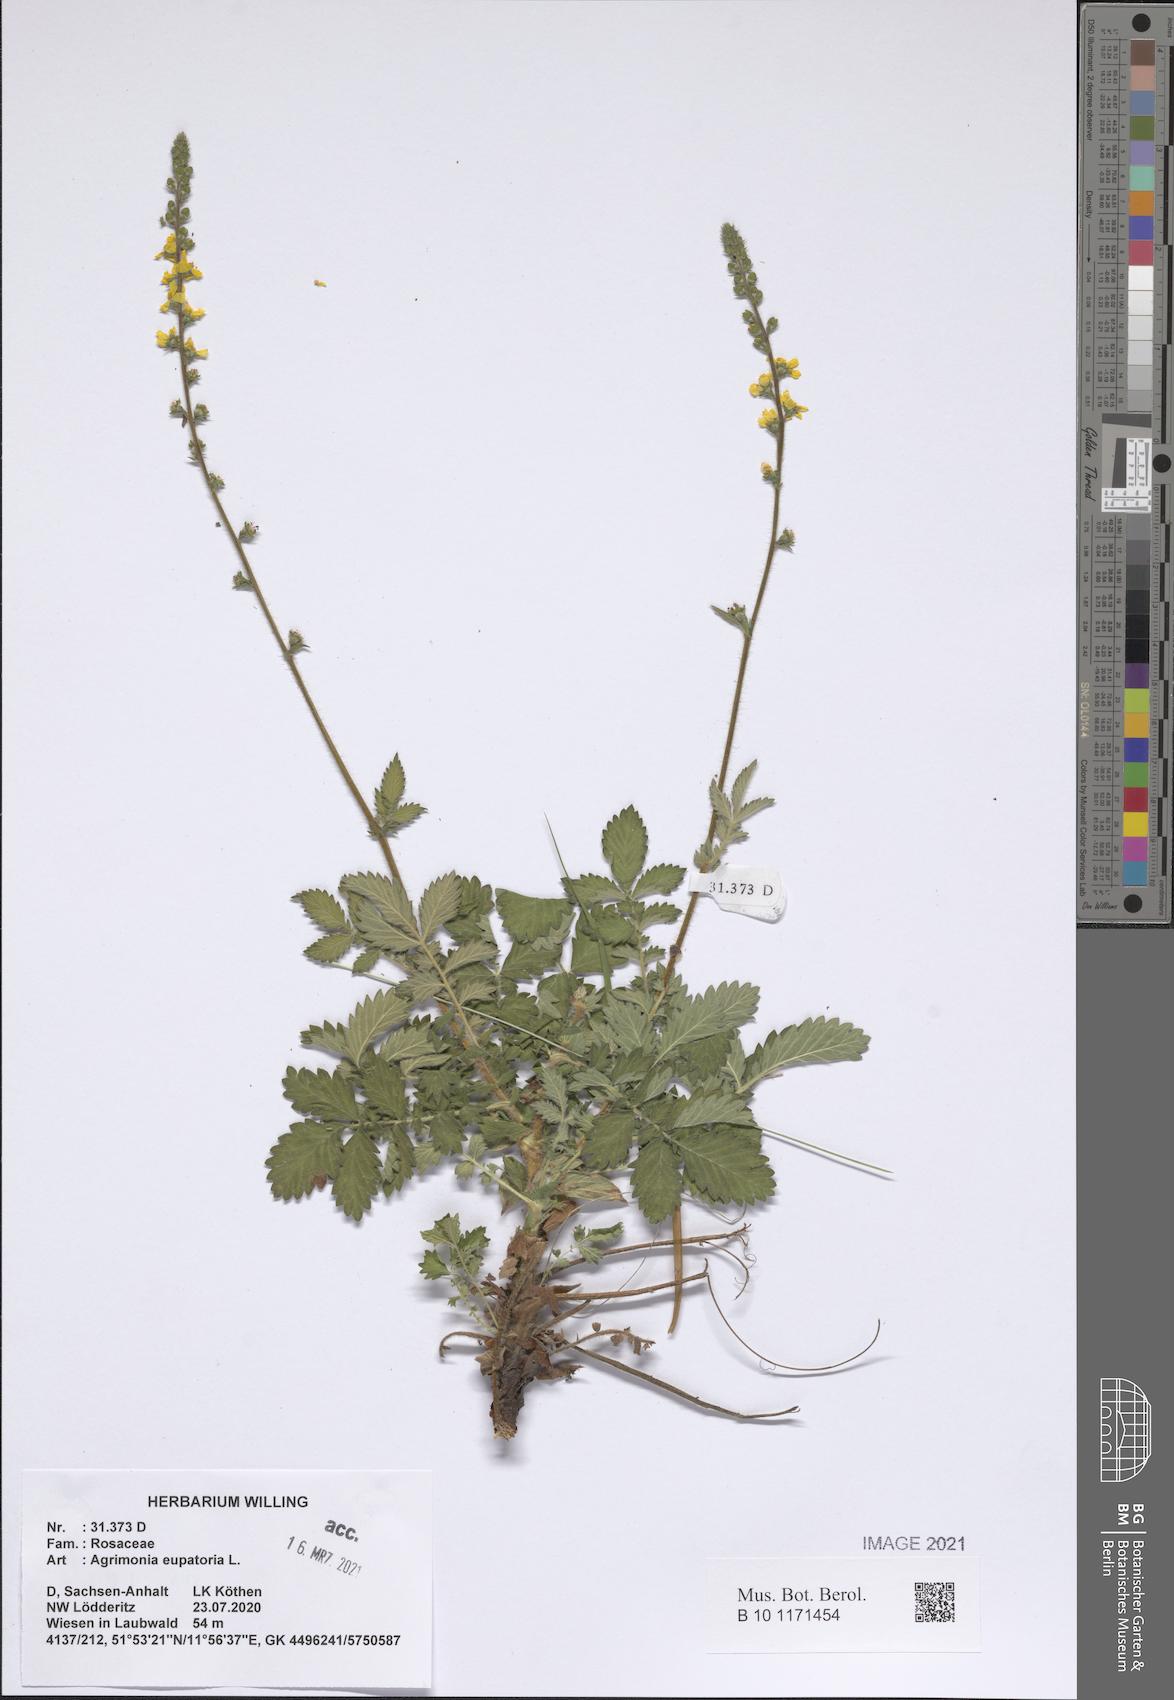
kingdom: Plantae
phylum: Tracheophyta
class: Magnoliopsida
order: Rosales
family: Rosaceae
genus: Agrimonia
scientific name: Agrimonia eupatoria
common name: Agrimony
